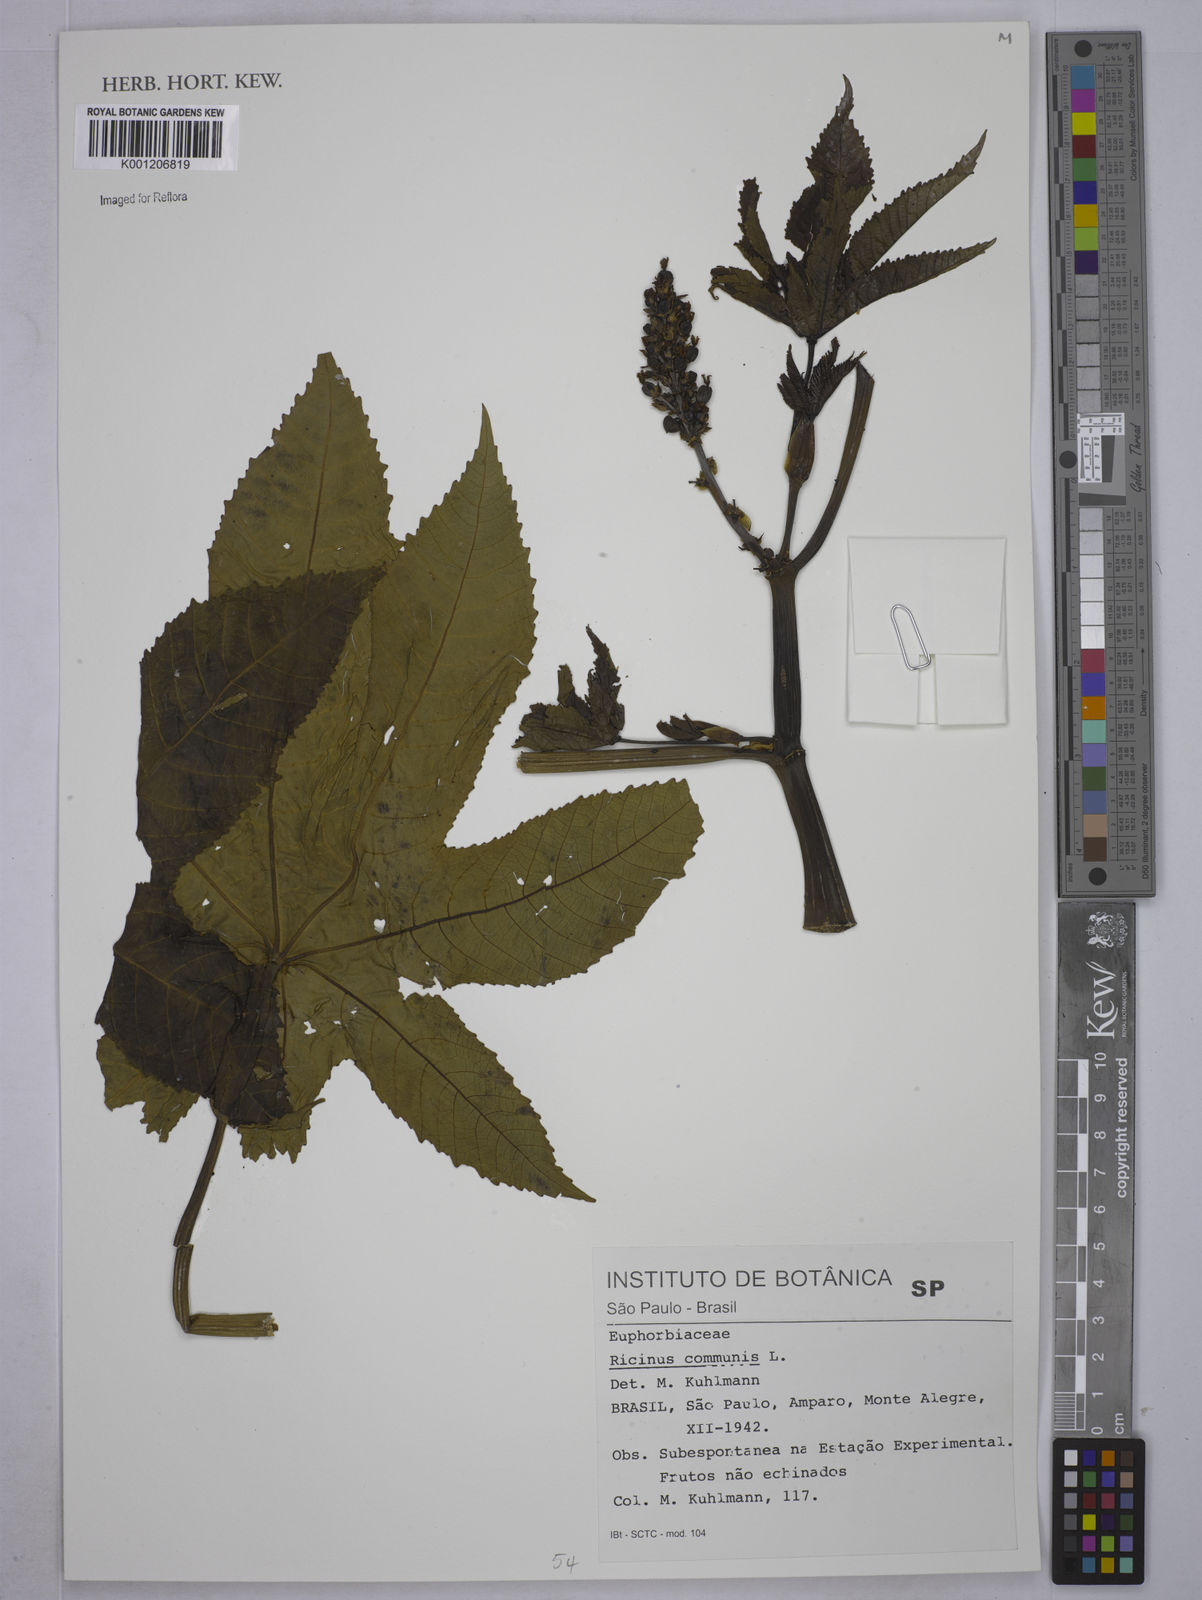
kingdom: Plantae
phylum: Tracheophyta
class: Magnoliopsida
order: Malpighiales
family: Euphorbiaceae
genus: Ricinus
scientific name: Ricinus communis
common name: Castor-oil-plant
